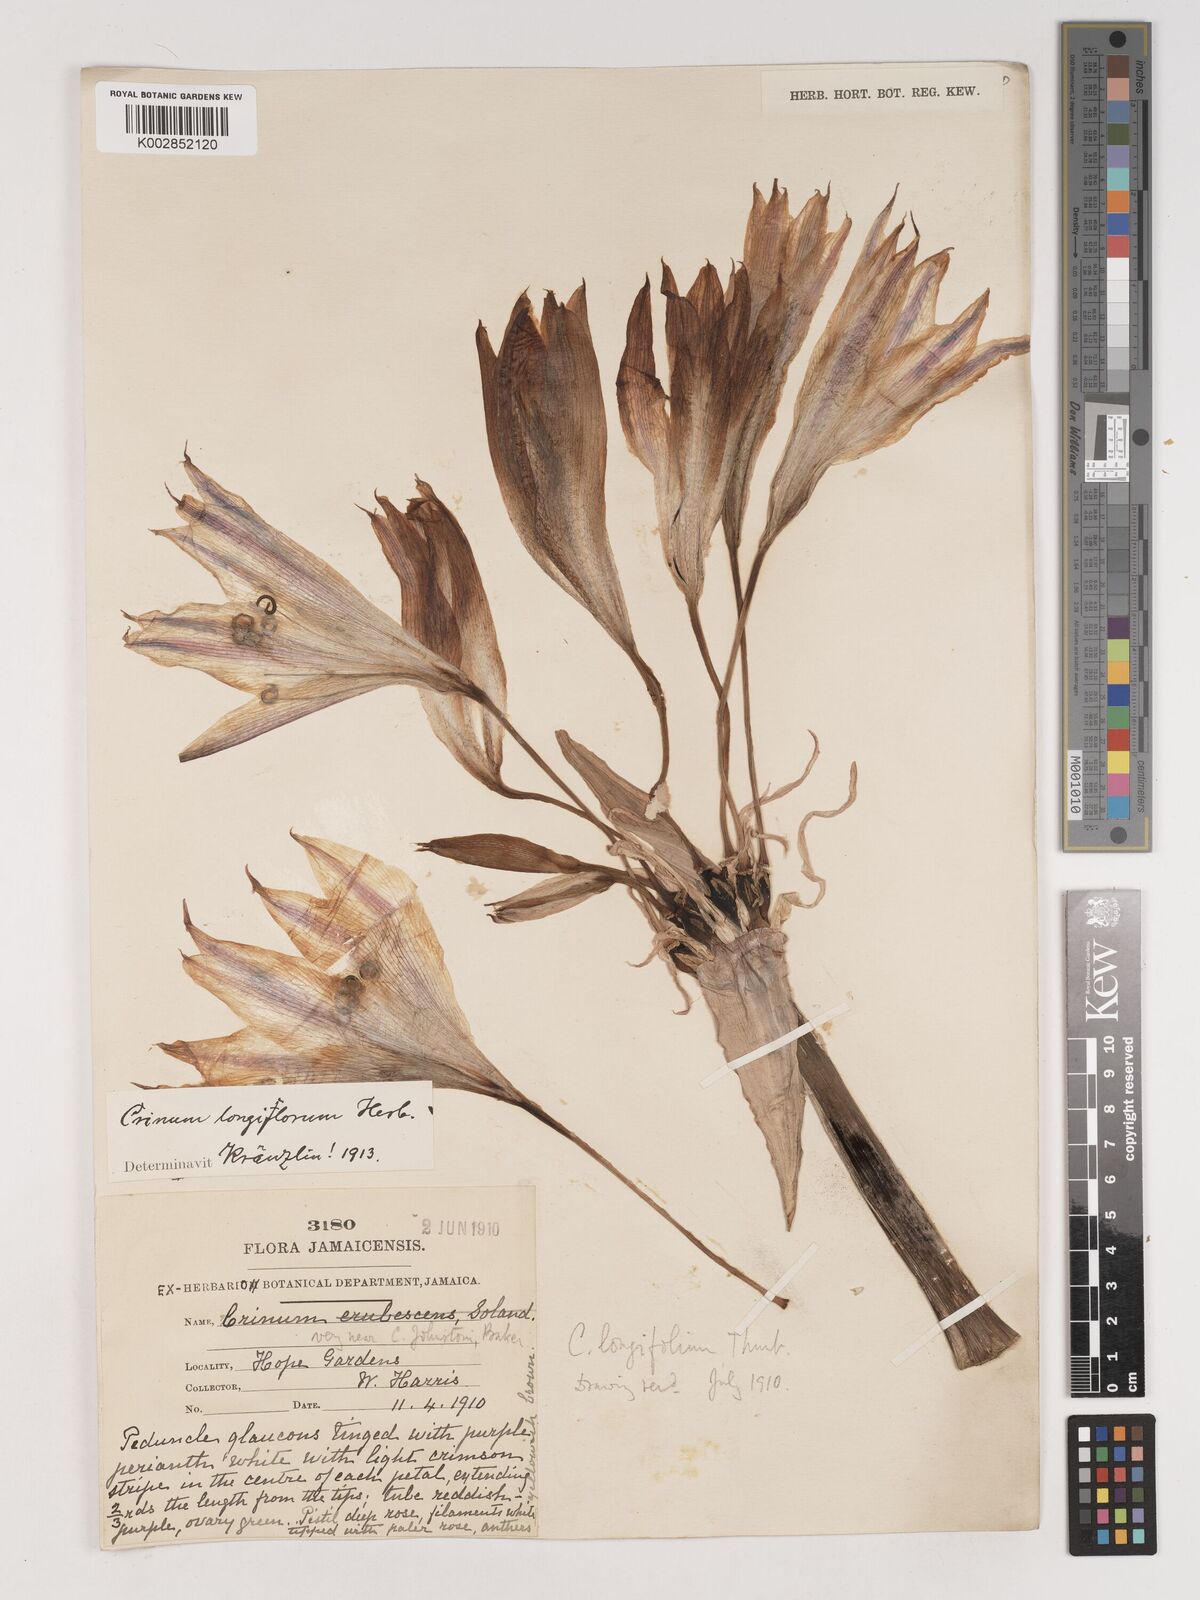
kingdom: Plantae
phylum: Tracheophyta
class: Liliopsida
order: Asparagales
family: Amaryllidaceae
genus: Crinum
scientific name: Crinum latifolium
